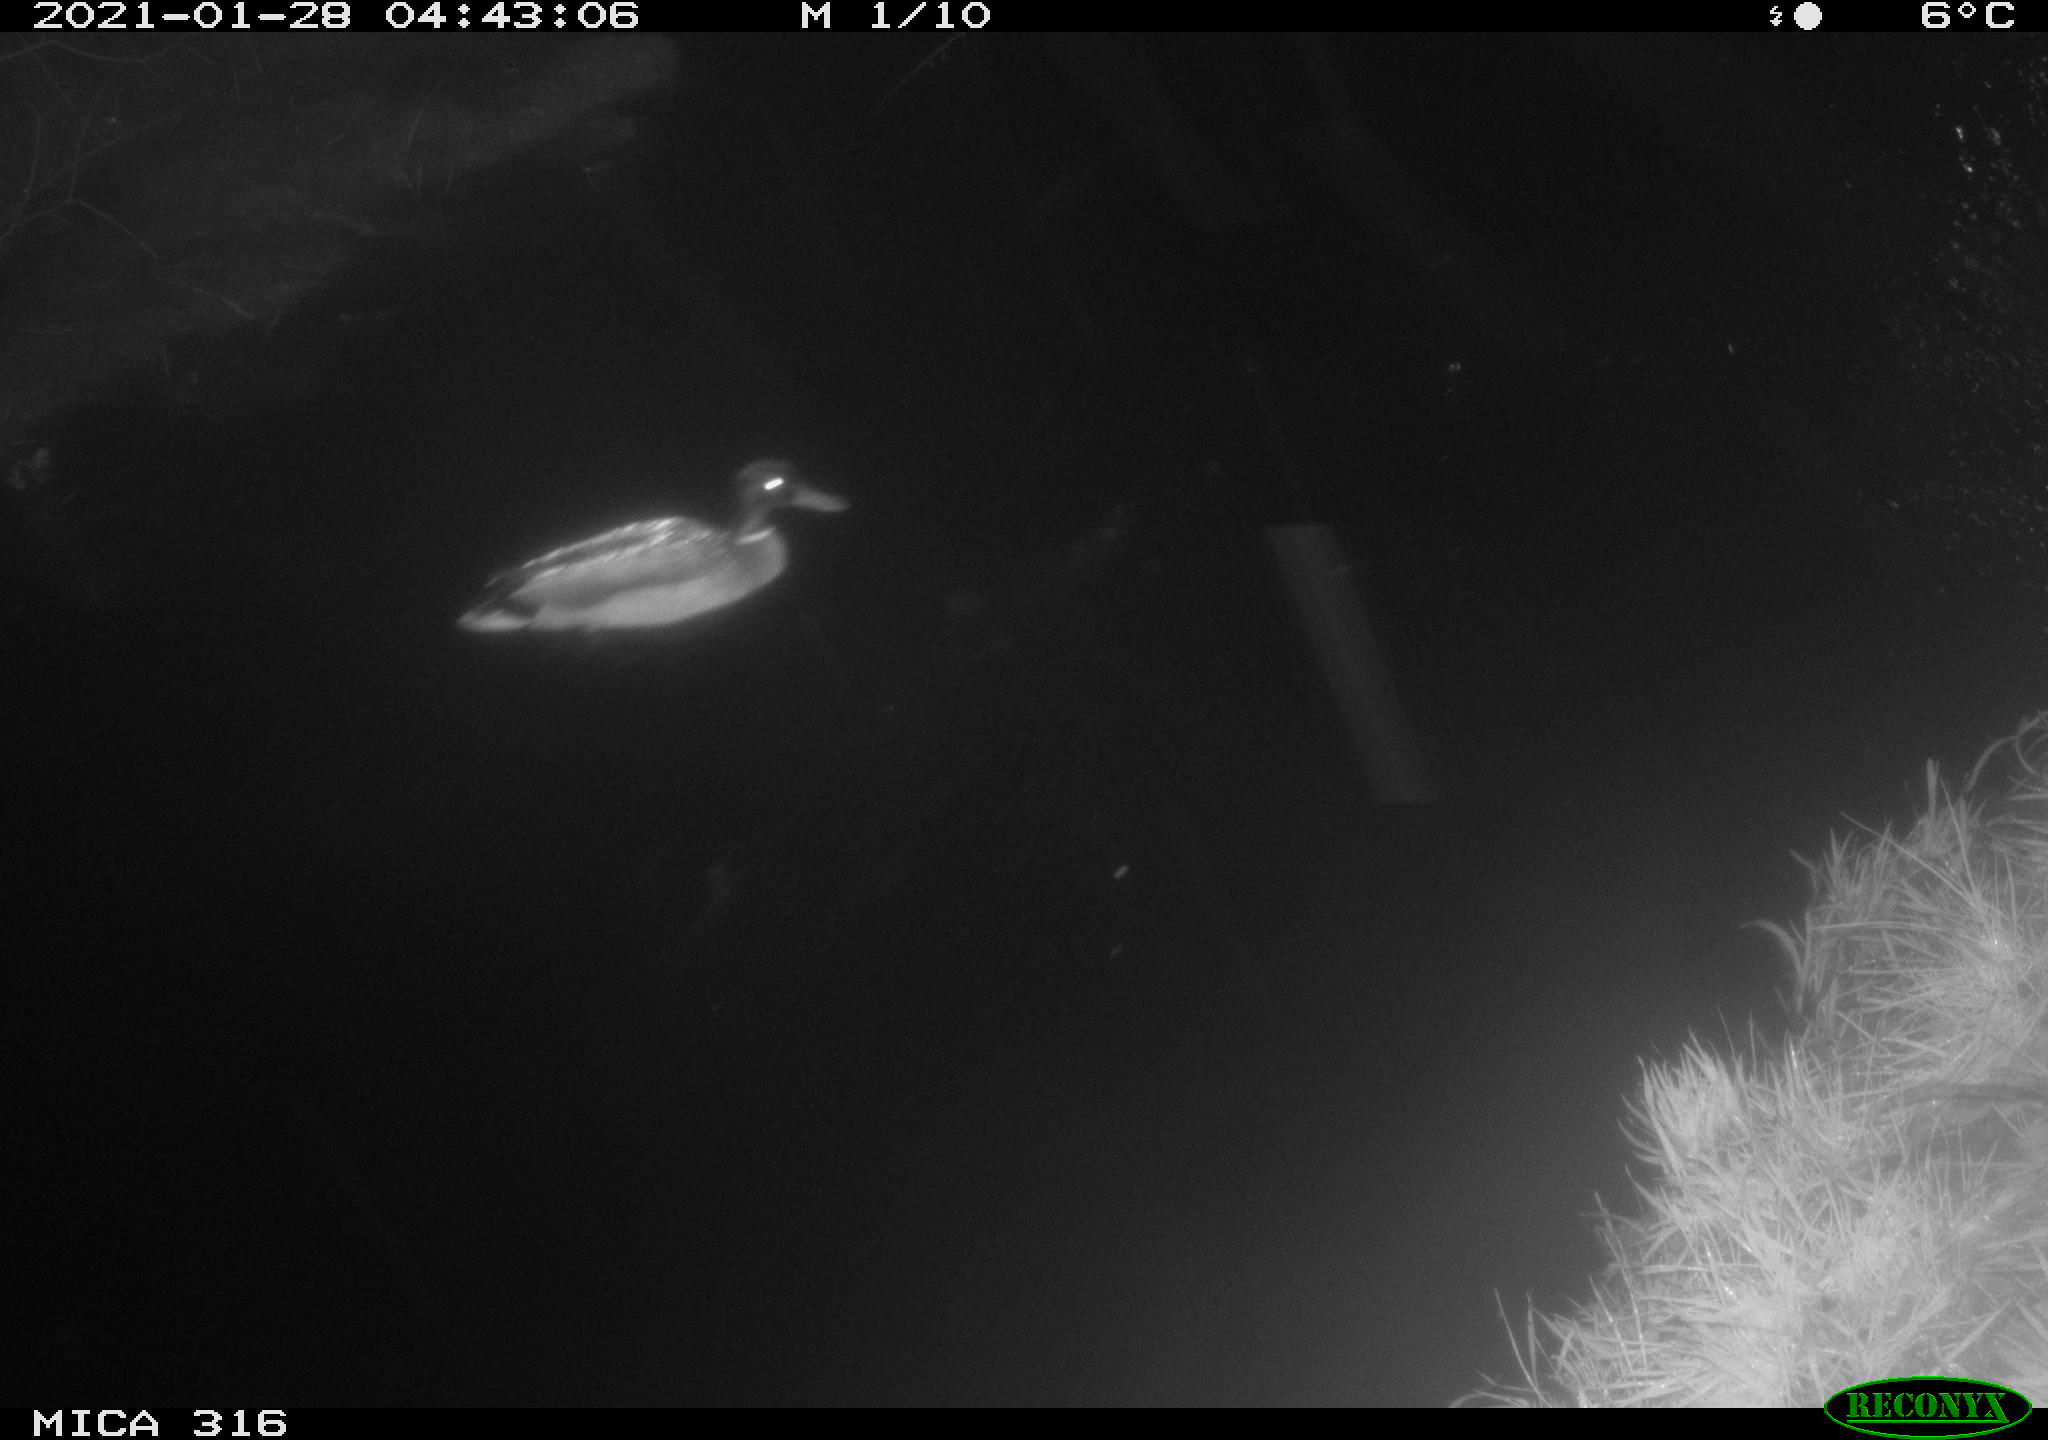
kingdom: Animalia
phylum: Chordata
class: Aves
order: Anseriformes
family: Anatidae
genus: Anas
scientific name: Anas platyrhynchos
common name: Mallard
